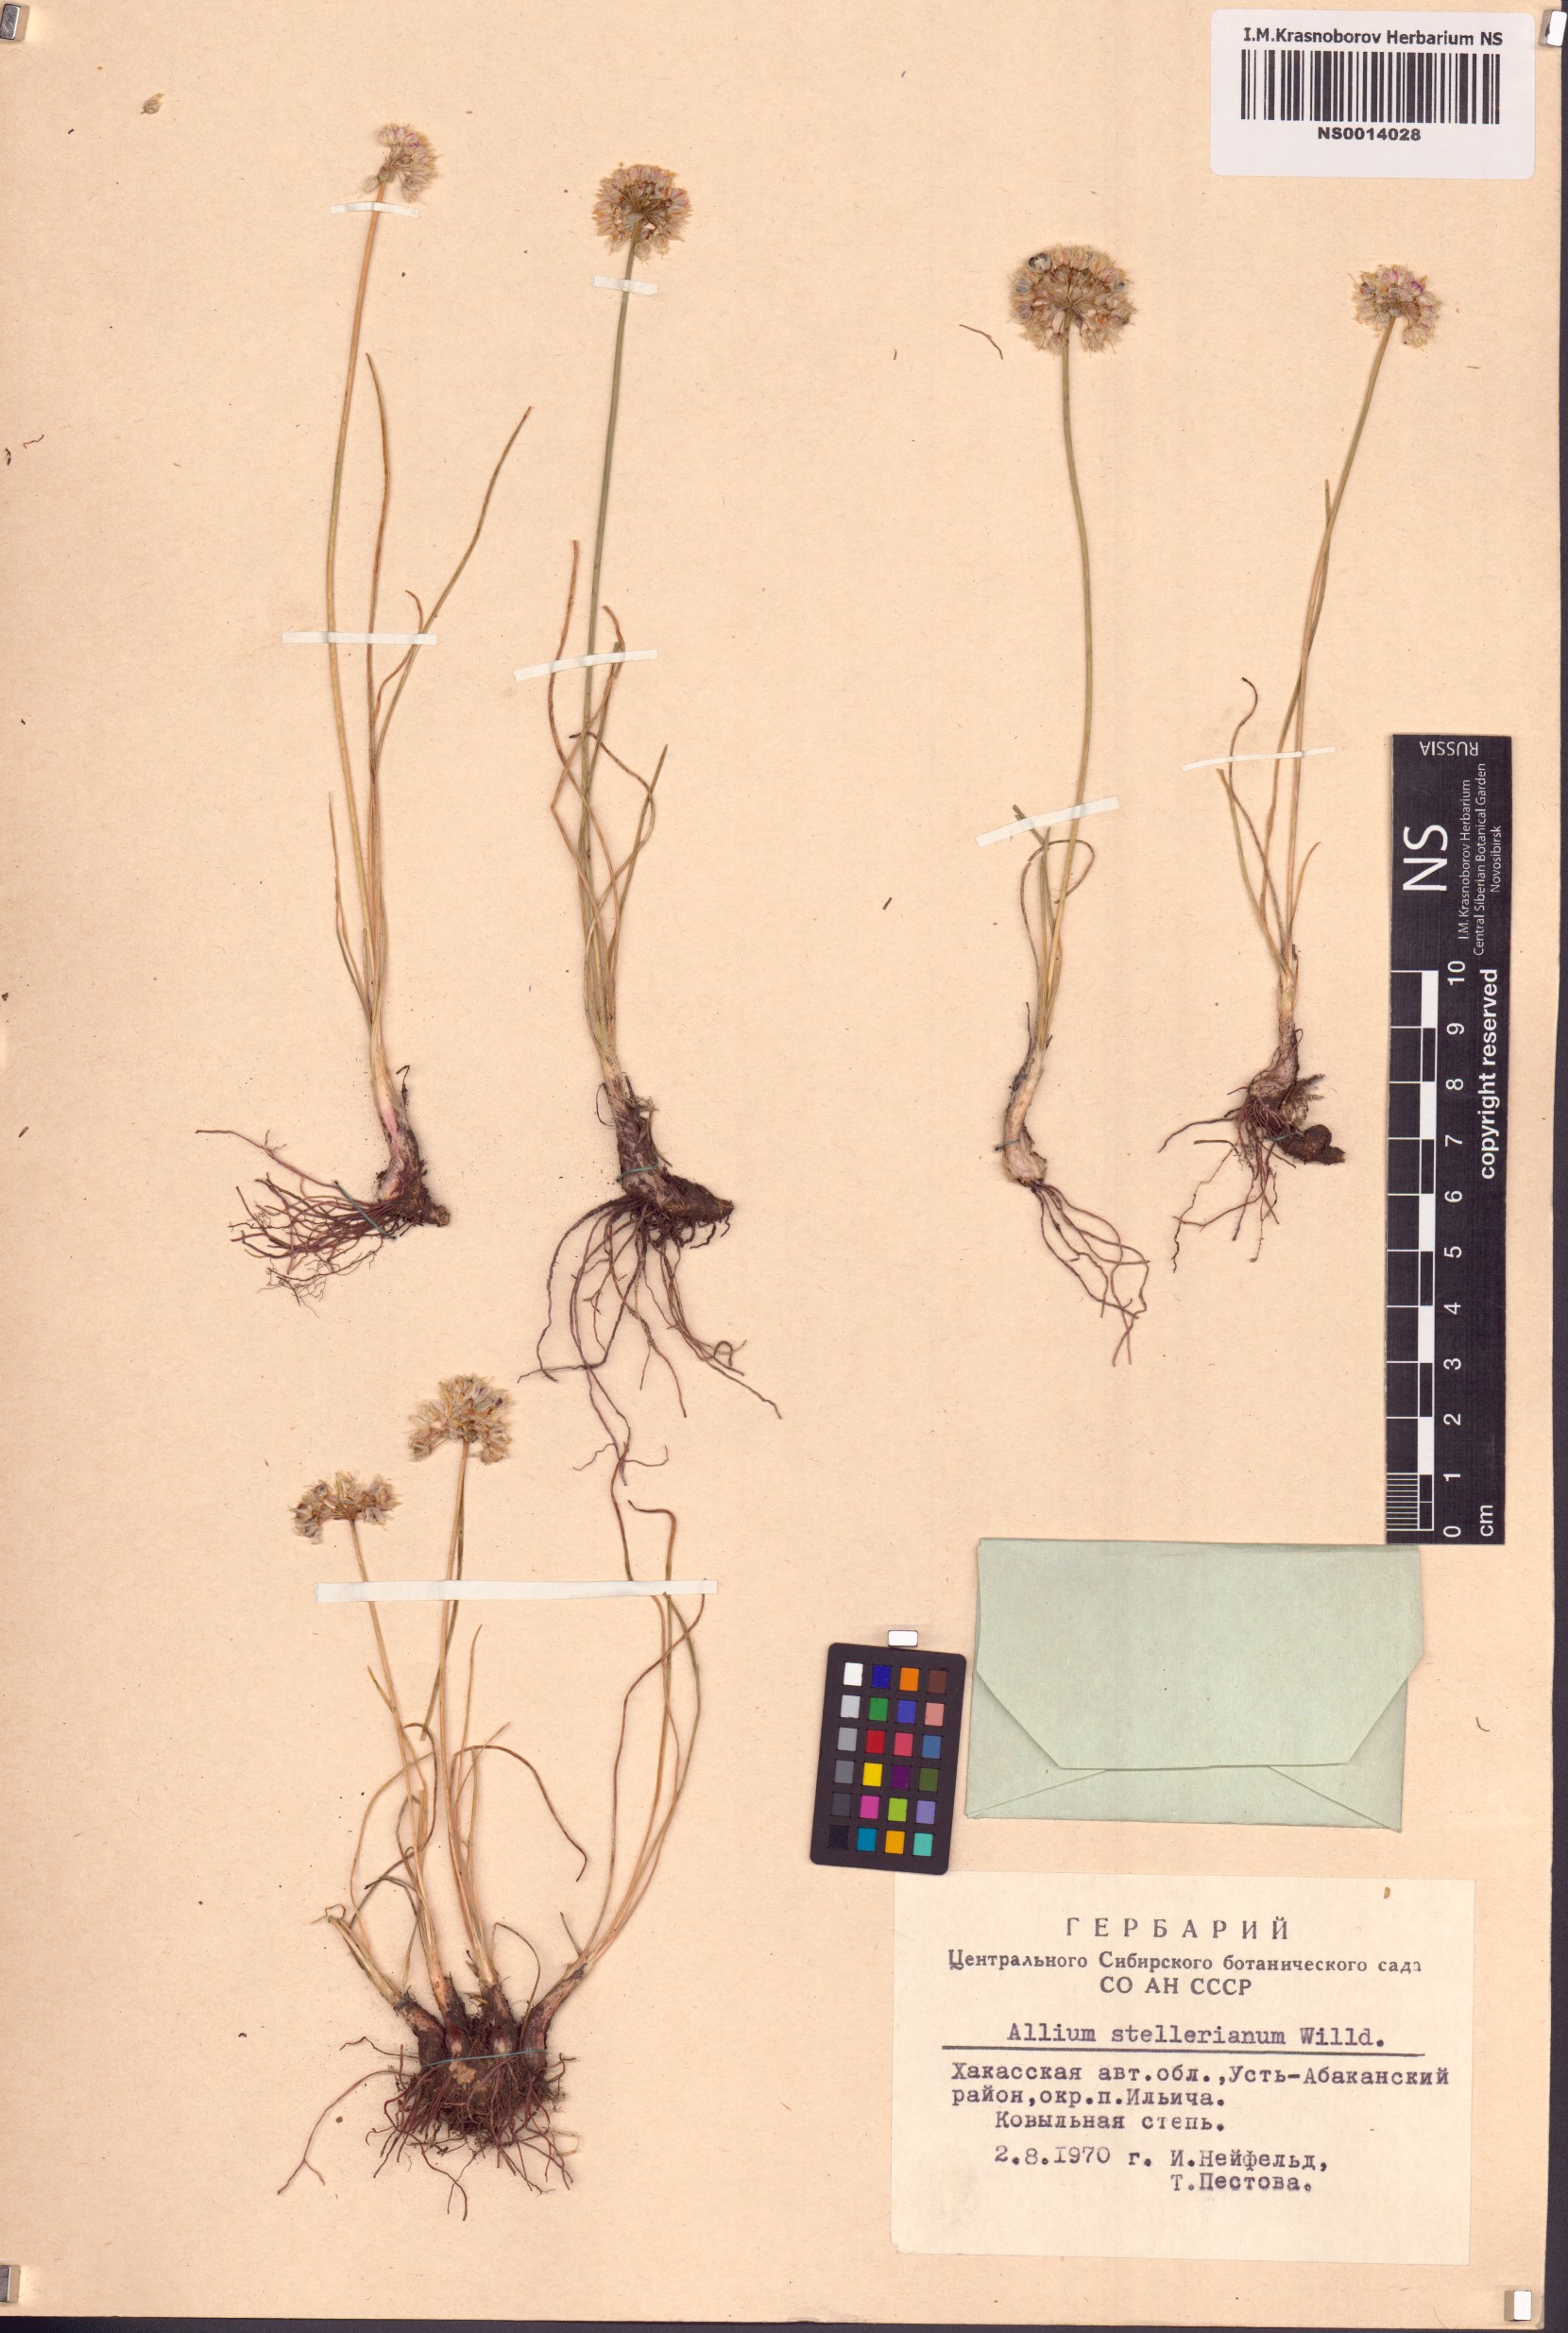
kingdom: Plantae
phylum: Tracheophyta
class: Liliopsida
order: Asparagales
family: Amaryllidaceae
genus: Allium
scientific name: Allium stellerianum
